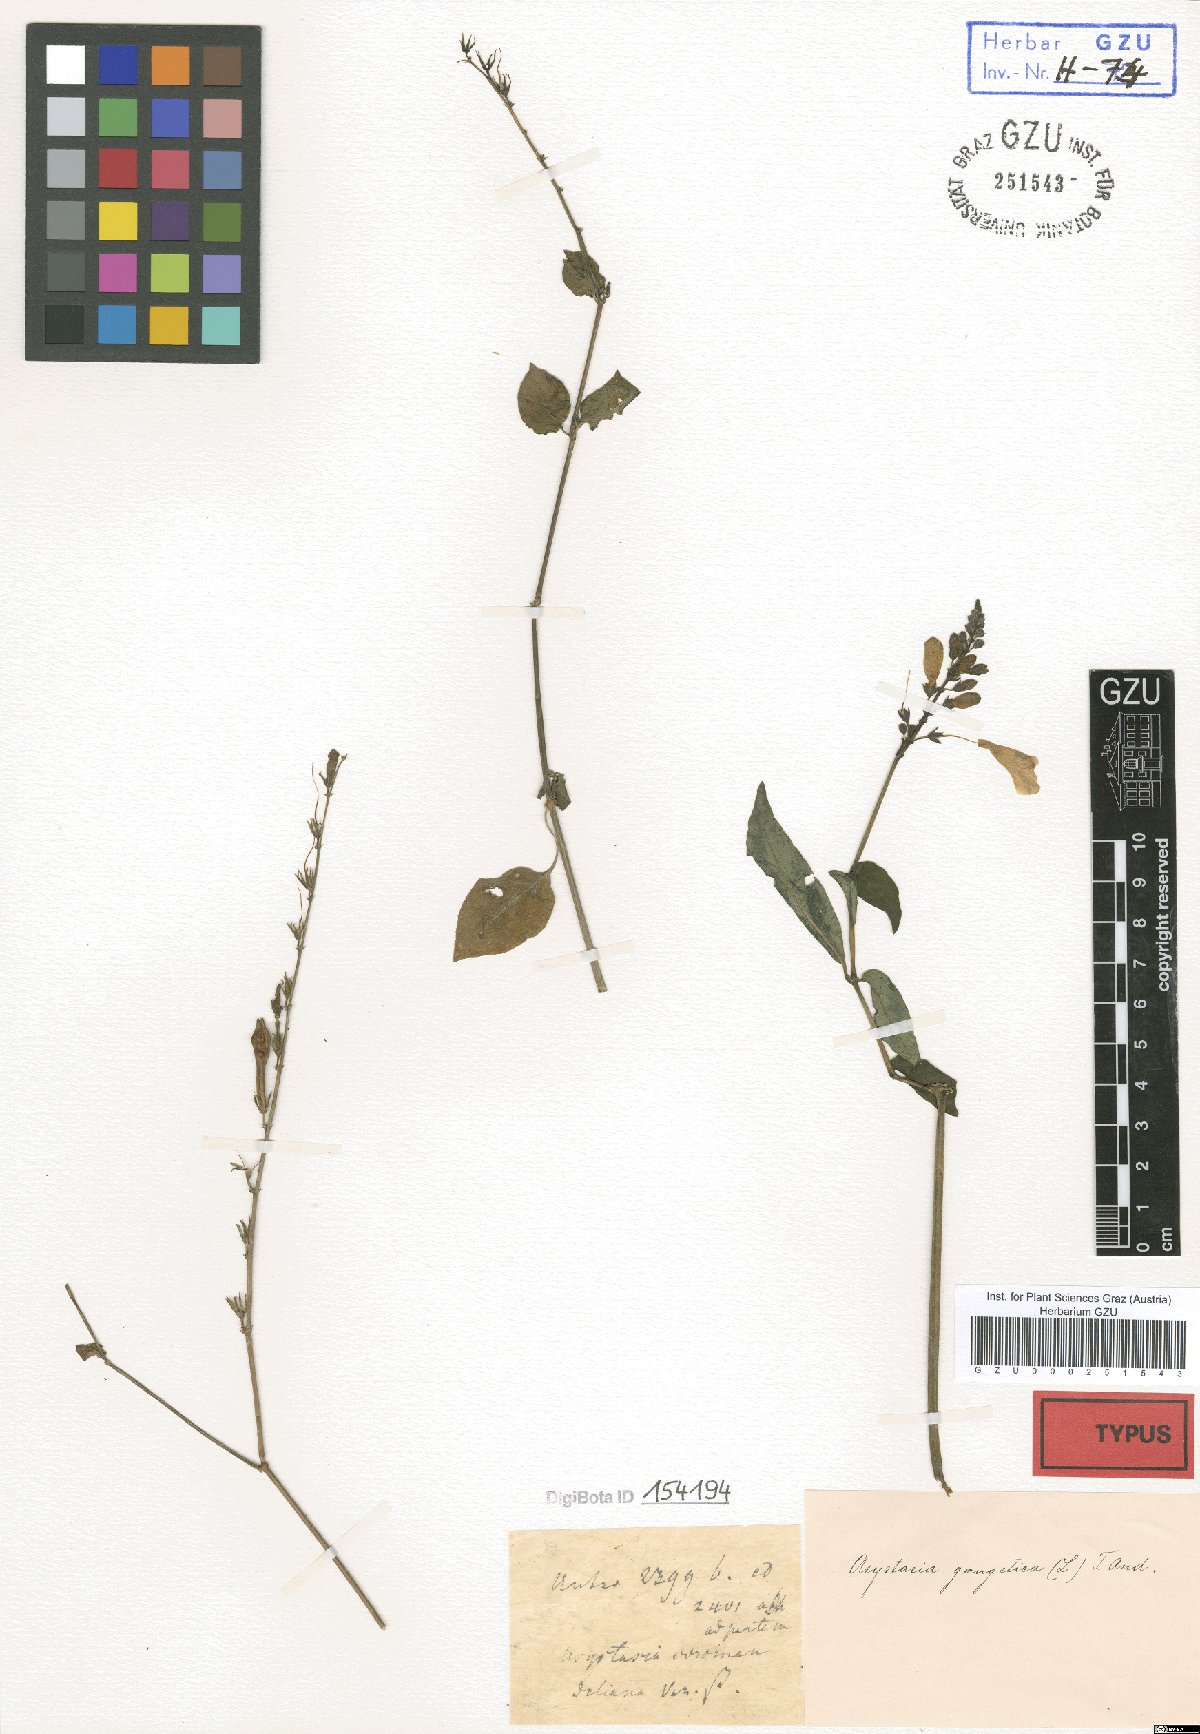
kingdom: Plantae
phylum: Tracheophyta
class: Magnoliopsida
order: Lamiales
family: Acanthaceae
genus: Asystasia
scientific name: Asystasia gangetica
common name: Chinese violet
